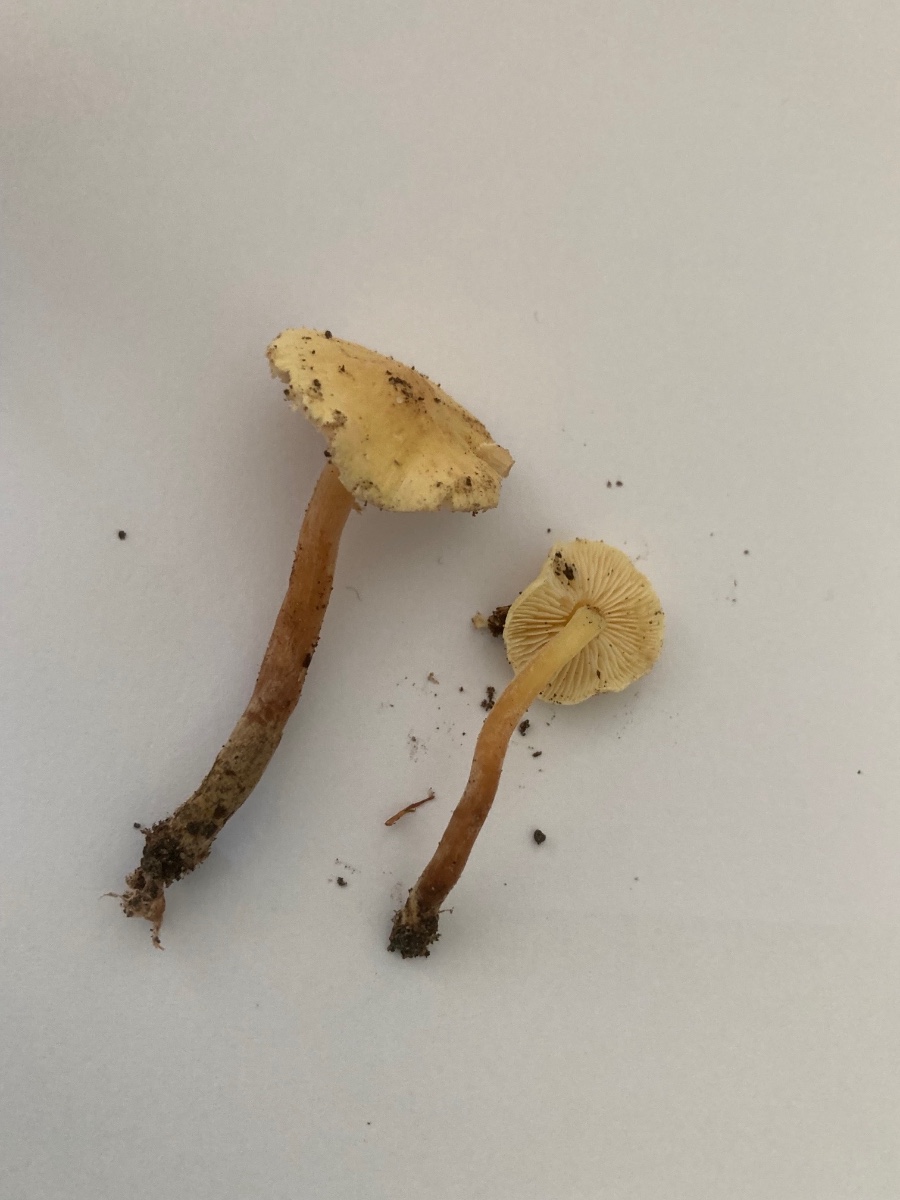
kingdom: Fungi
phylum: Basidiomycota
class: Agaricomycetes
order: Agaricales
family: Agaricaceae
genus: Cystolepiota
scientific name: Cystolepiota icterina
